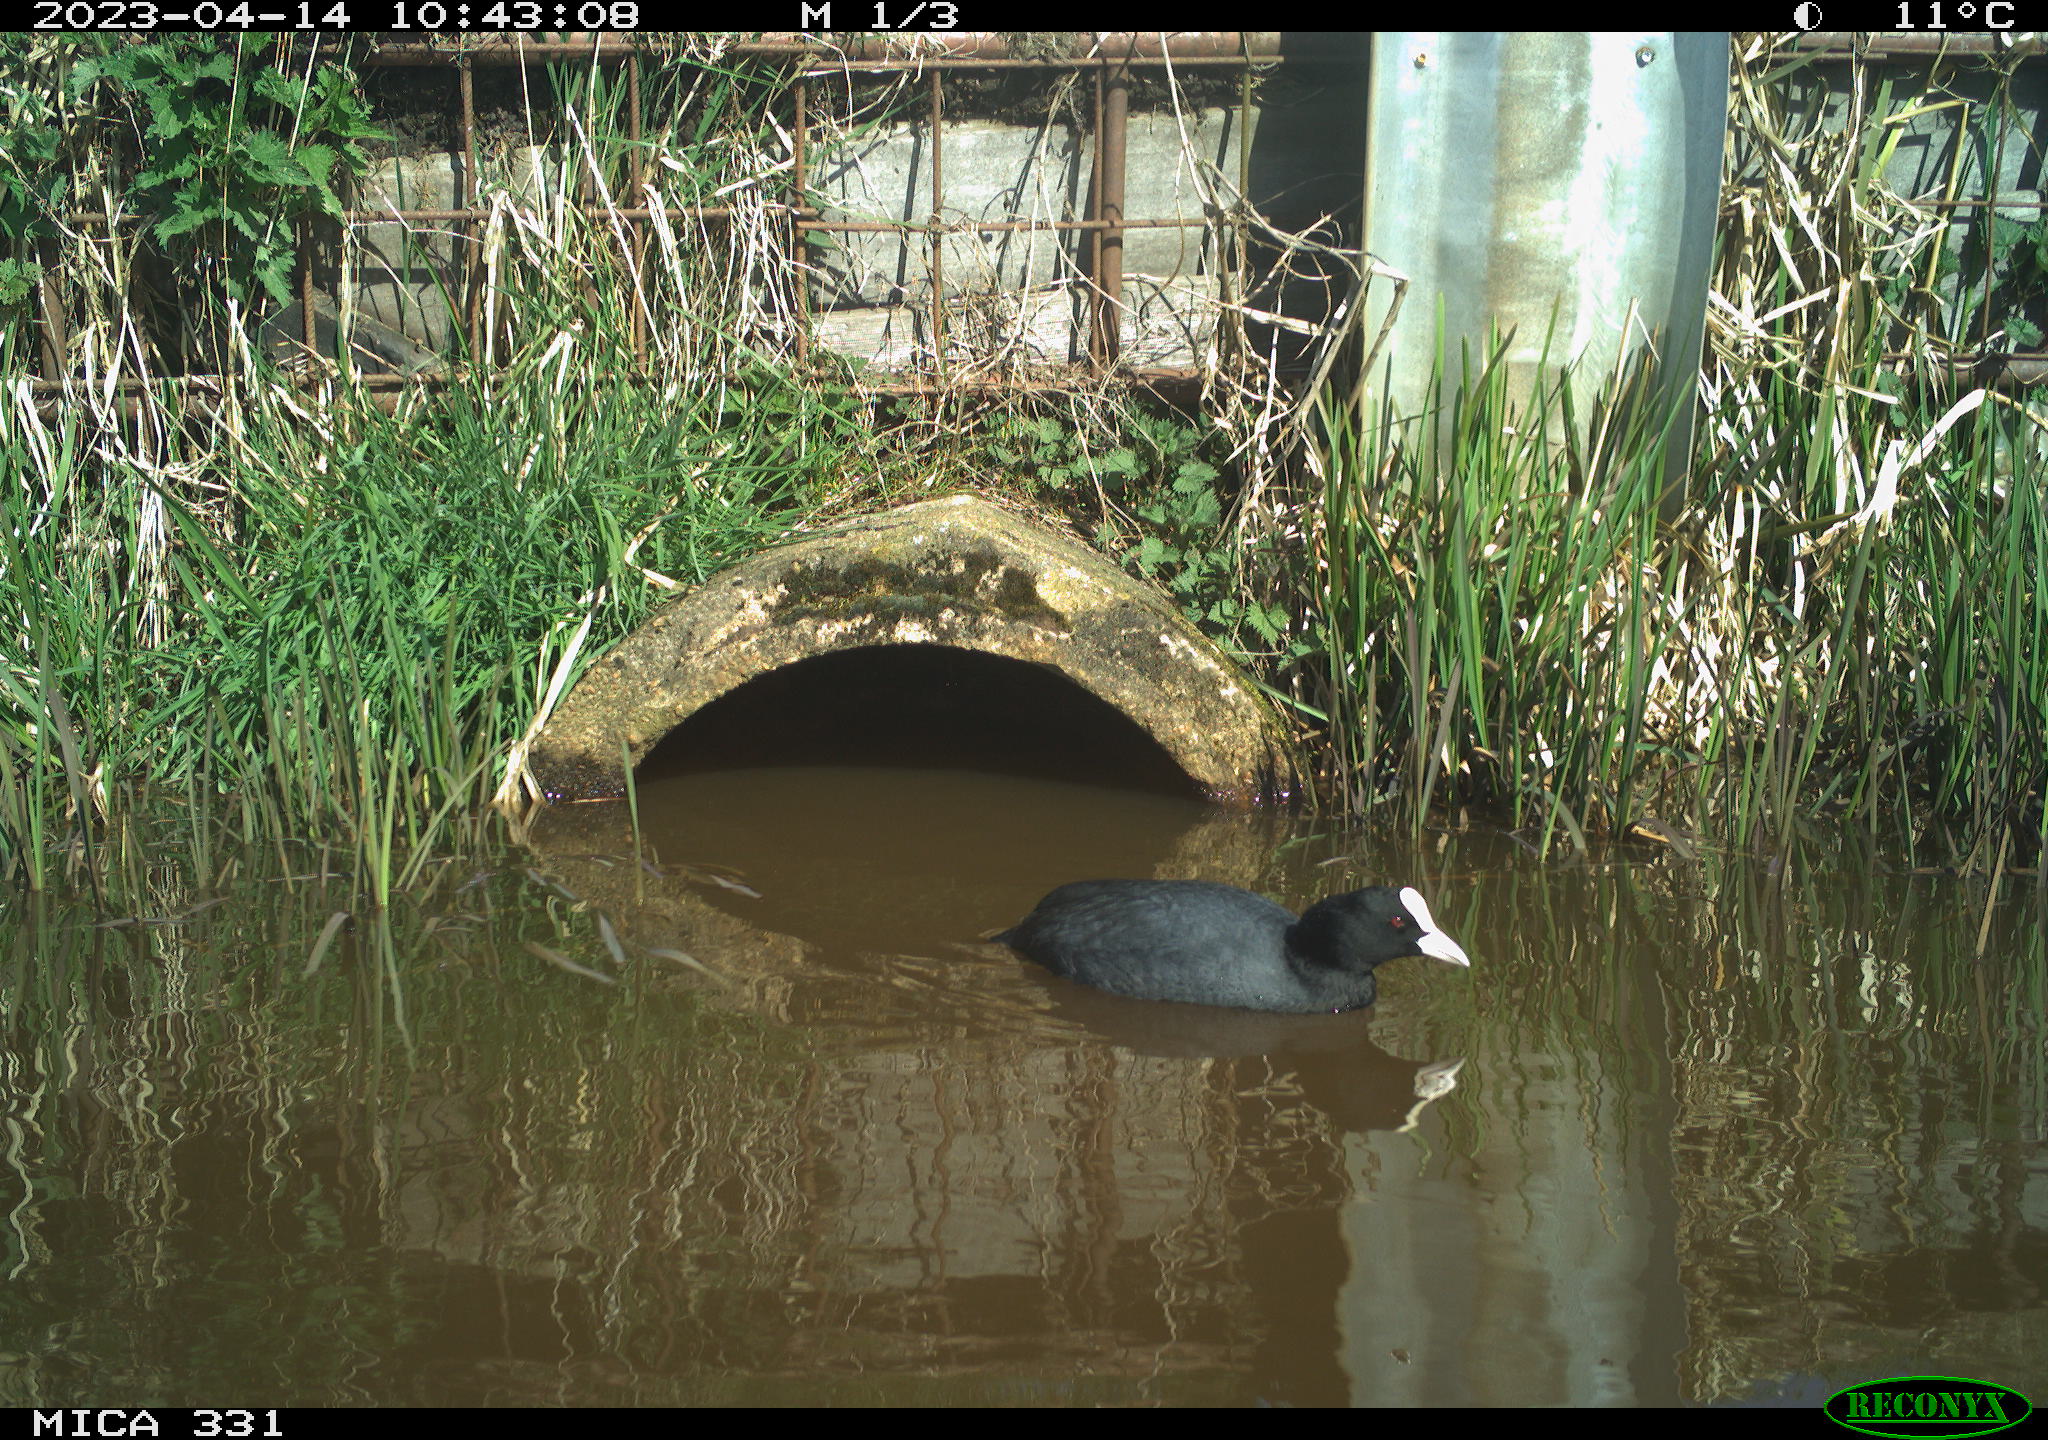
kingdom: Animalia
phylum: Chordata
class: Aves
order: Gruiformes
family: Rallidae
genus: Gallinula
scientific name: Gallinula chloropus
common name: Common moorhen
